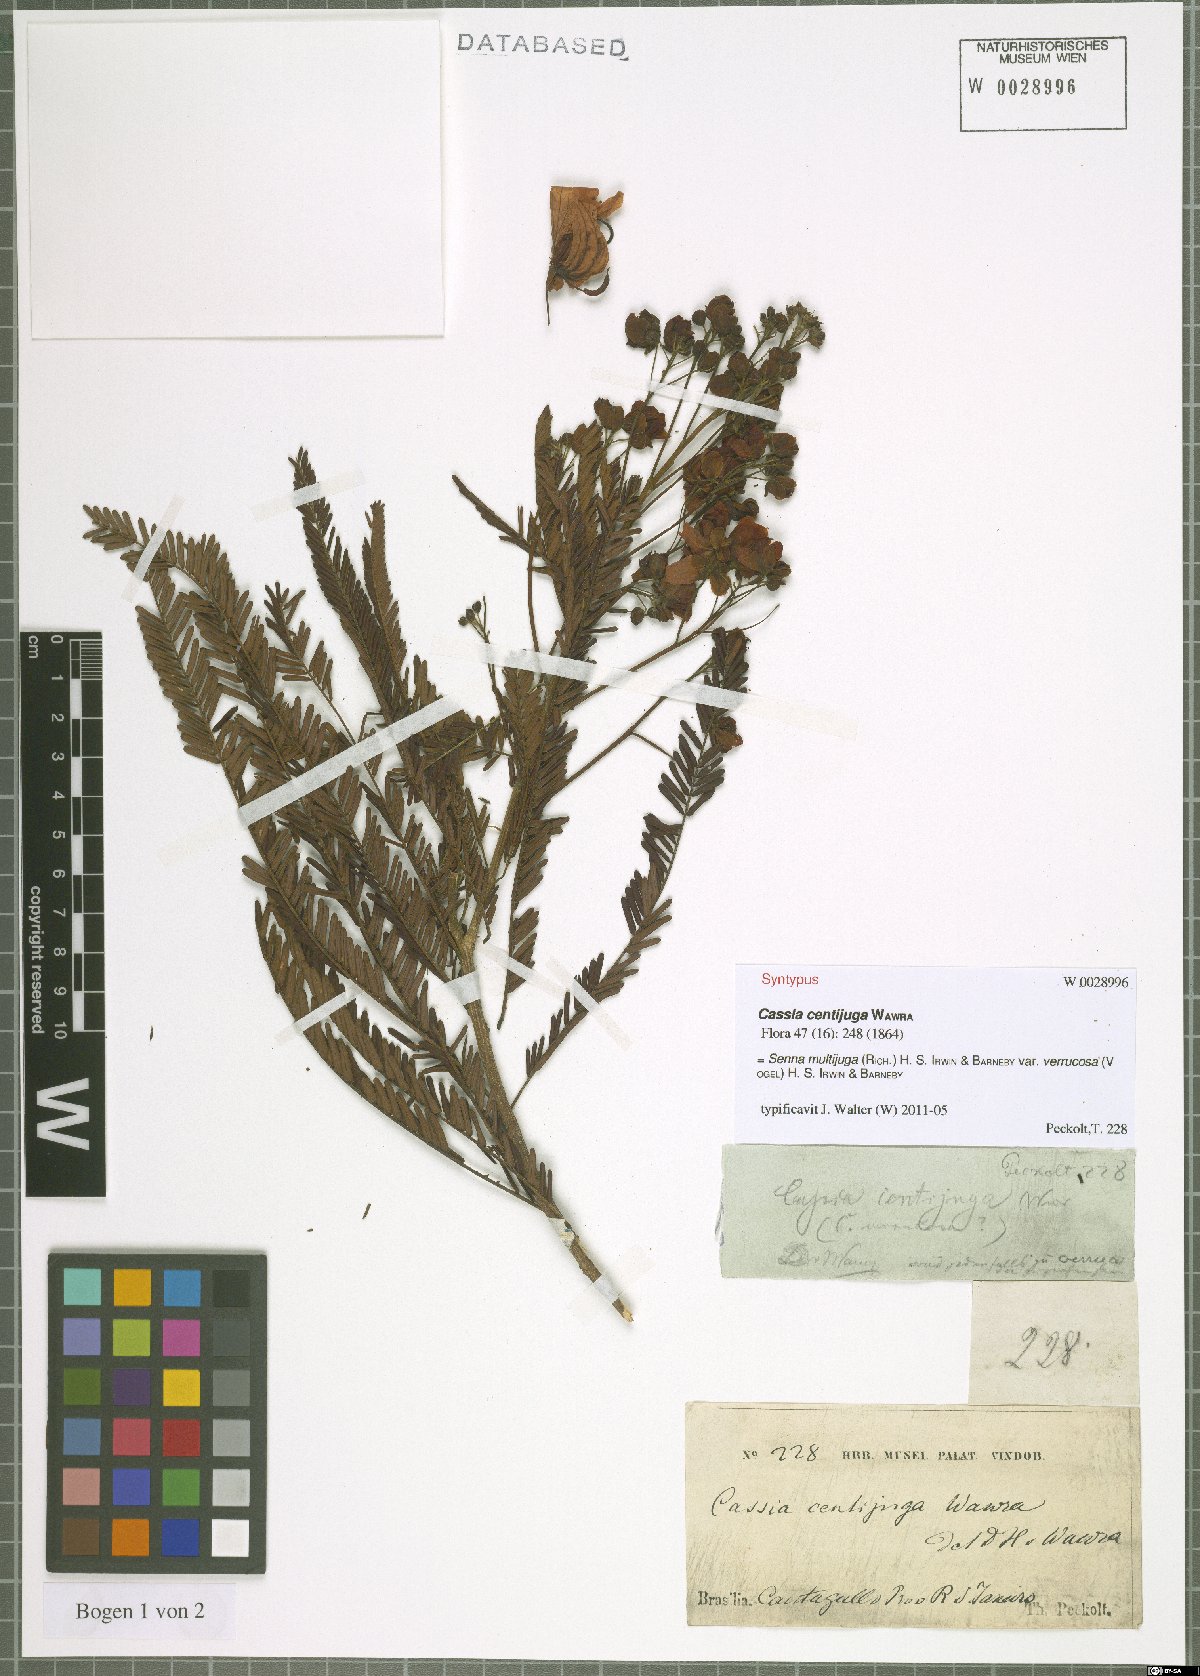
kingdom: Plantae
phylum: Tracheophyta
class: Magnoliopsida
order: Fabales
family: Fabaceae
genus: Senna
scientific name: Senna multijuga
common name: False sicklepod
